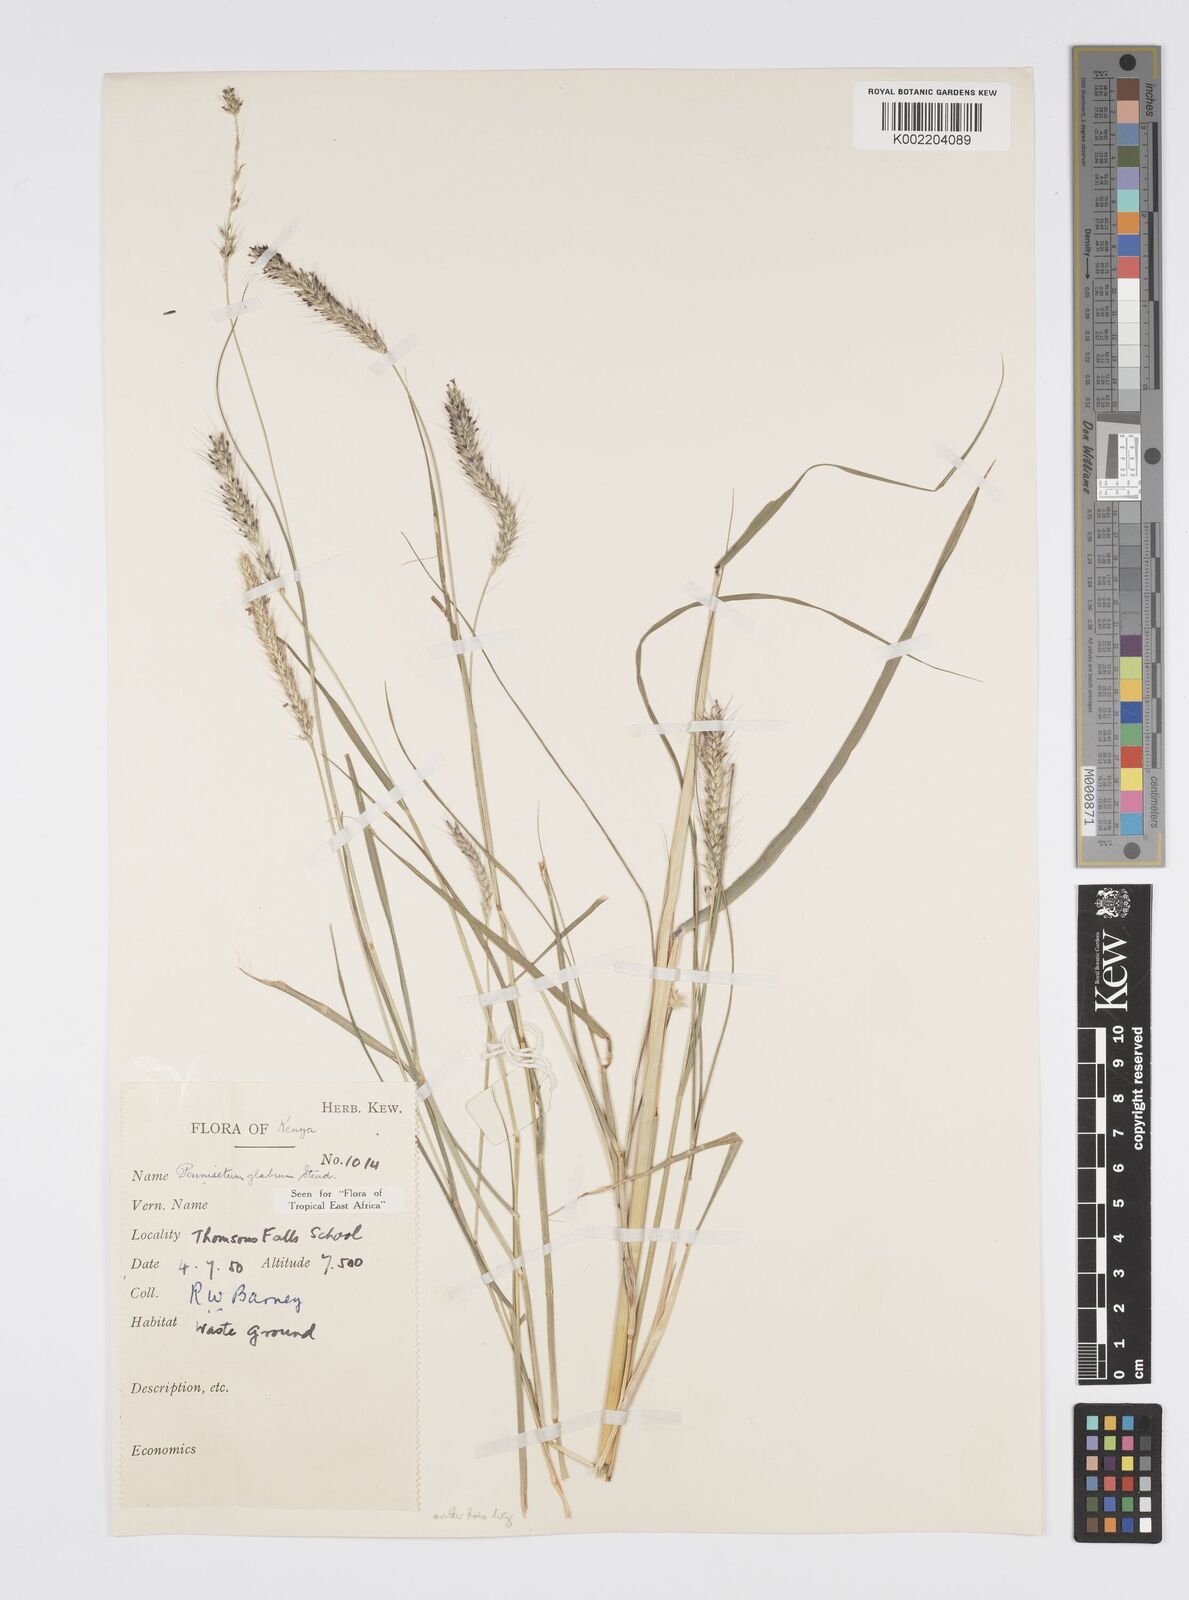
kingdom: Plantae
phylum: Tracheophyta
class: Liliopsida
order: Poales
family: Poaceae
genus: Cenchrus
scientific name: Cenchrus geniculatus
